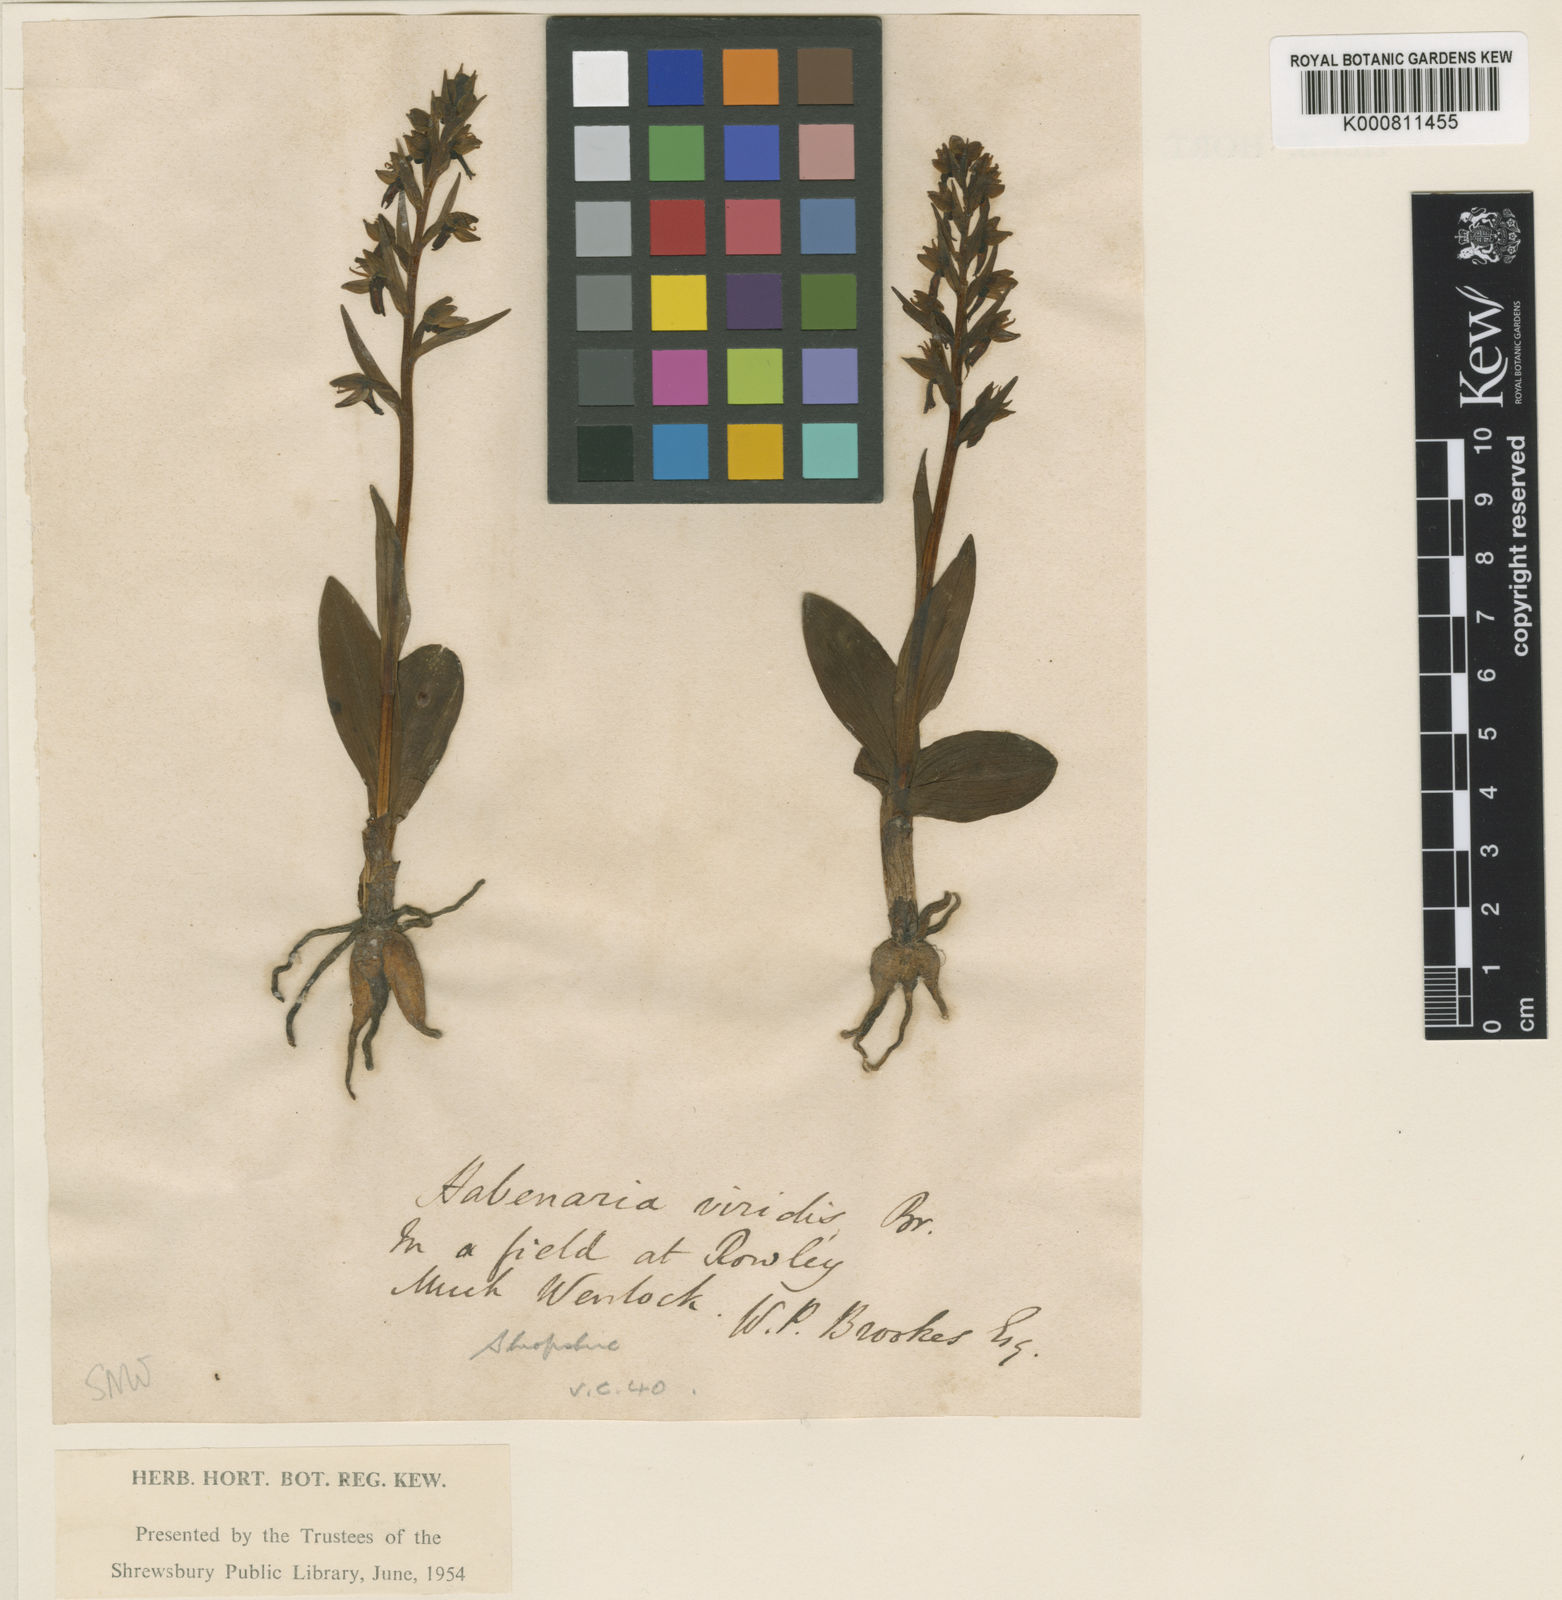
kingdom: Plantae
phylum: Tracheophyta
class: Liliopsida
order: Asparagales
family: Orchidaceae
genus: Dactylorhiza
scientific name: Dactylorhiza viridis
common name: Longbract frog orchid
